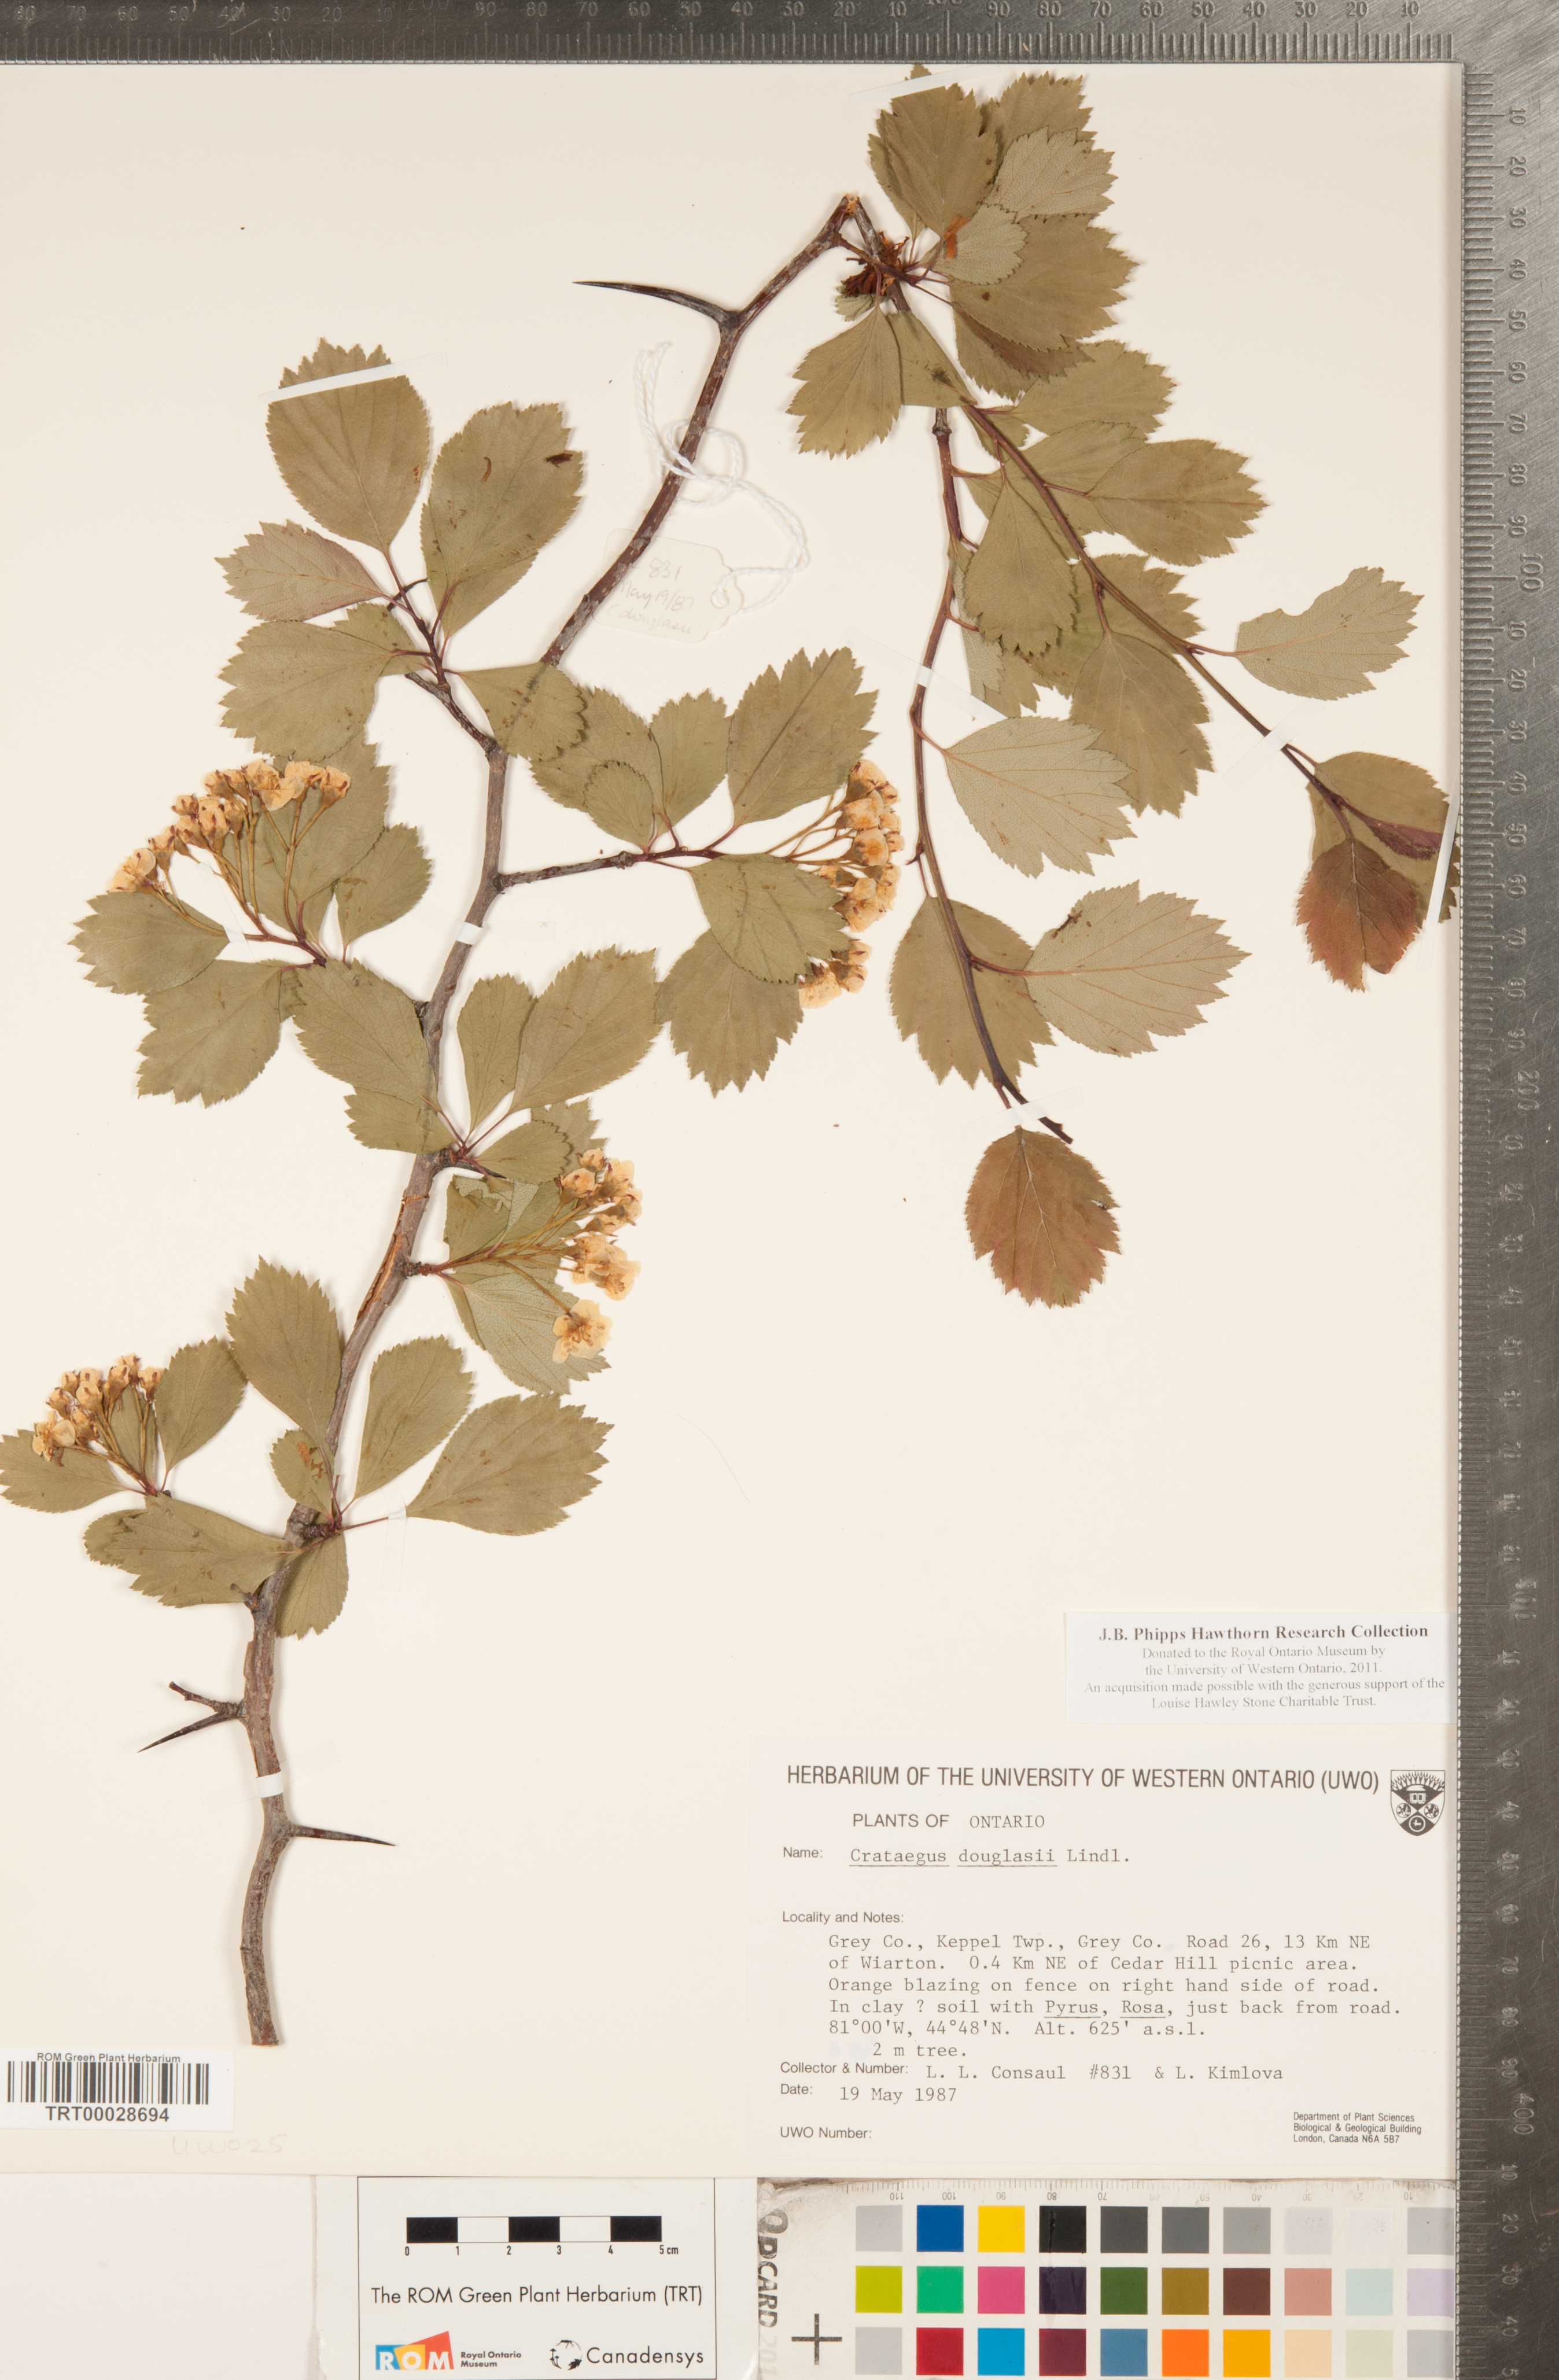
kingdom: Plantae
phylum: Tracheophyta
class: Magnoliopsida
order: Rosales
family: Rosaceae
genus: Crataegus
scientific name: Crataegus douglasii
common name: Black hawthorn
